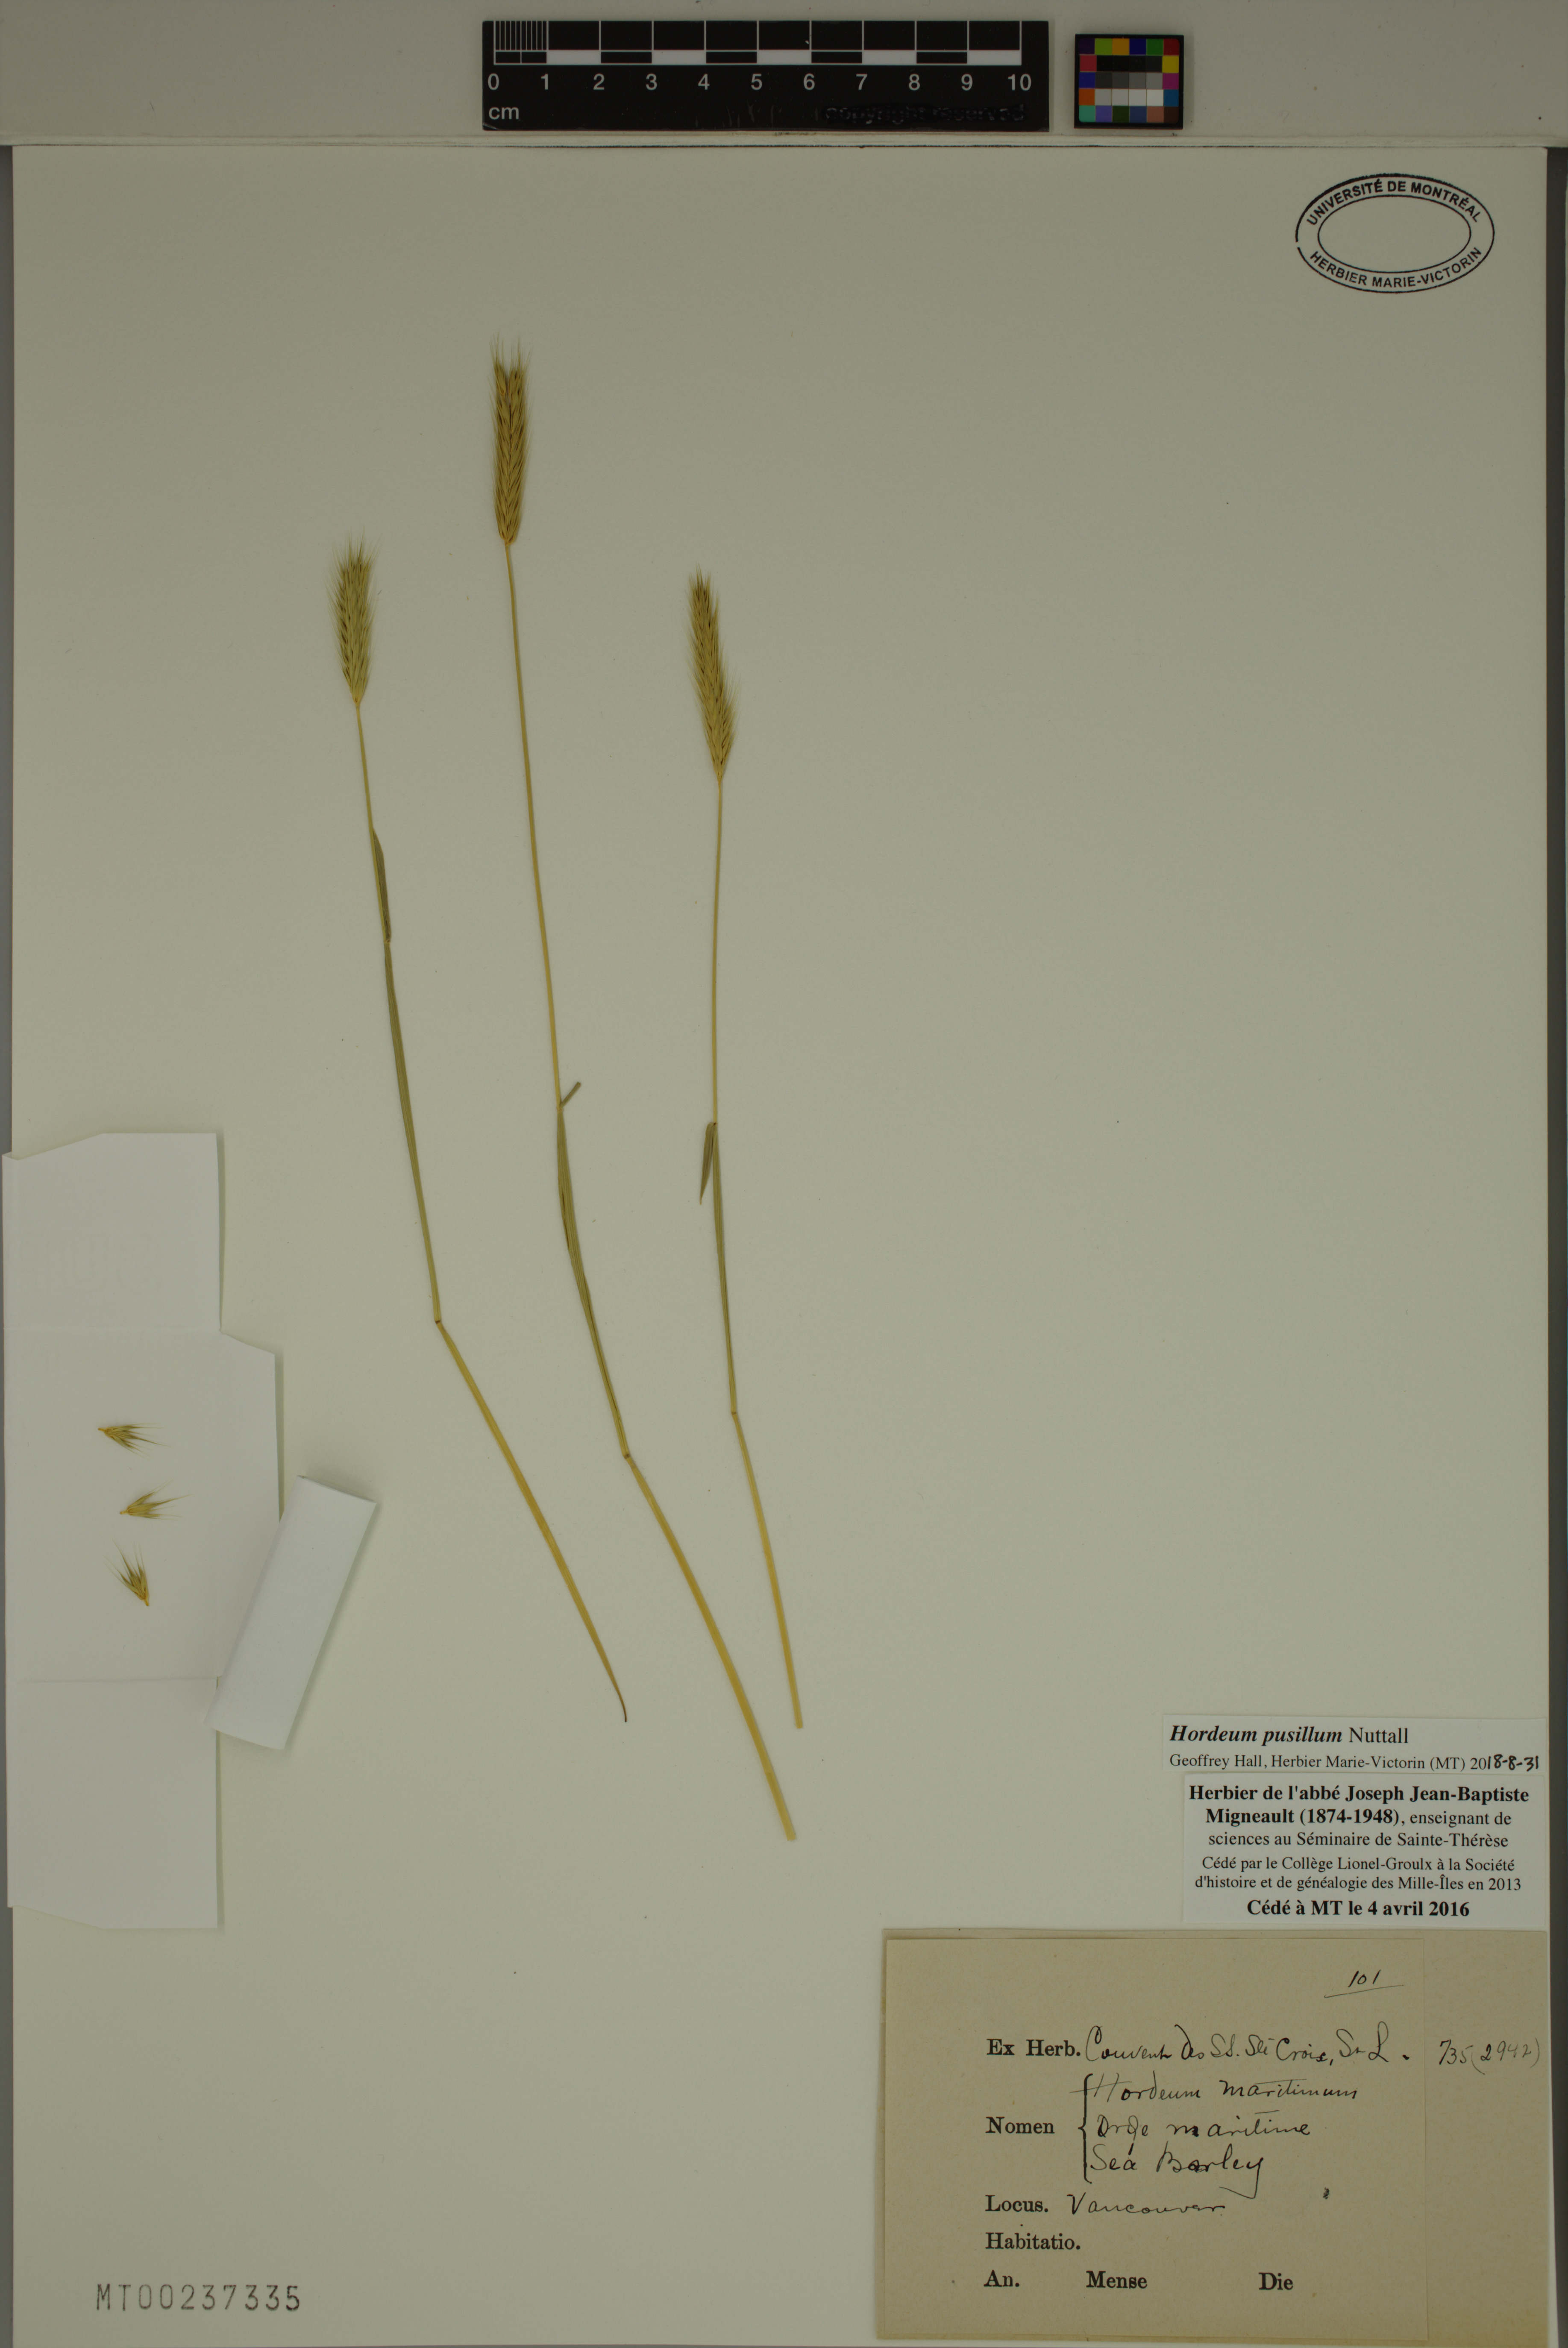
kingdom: Plantae
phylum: Tracheophyta
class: Liliopsida
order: Poales
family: Poaceae
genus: Hordeum
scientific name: Hordeum pusillum
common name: Little barley
